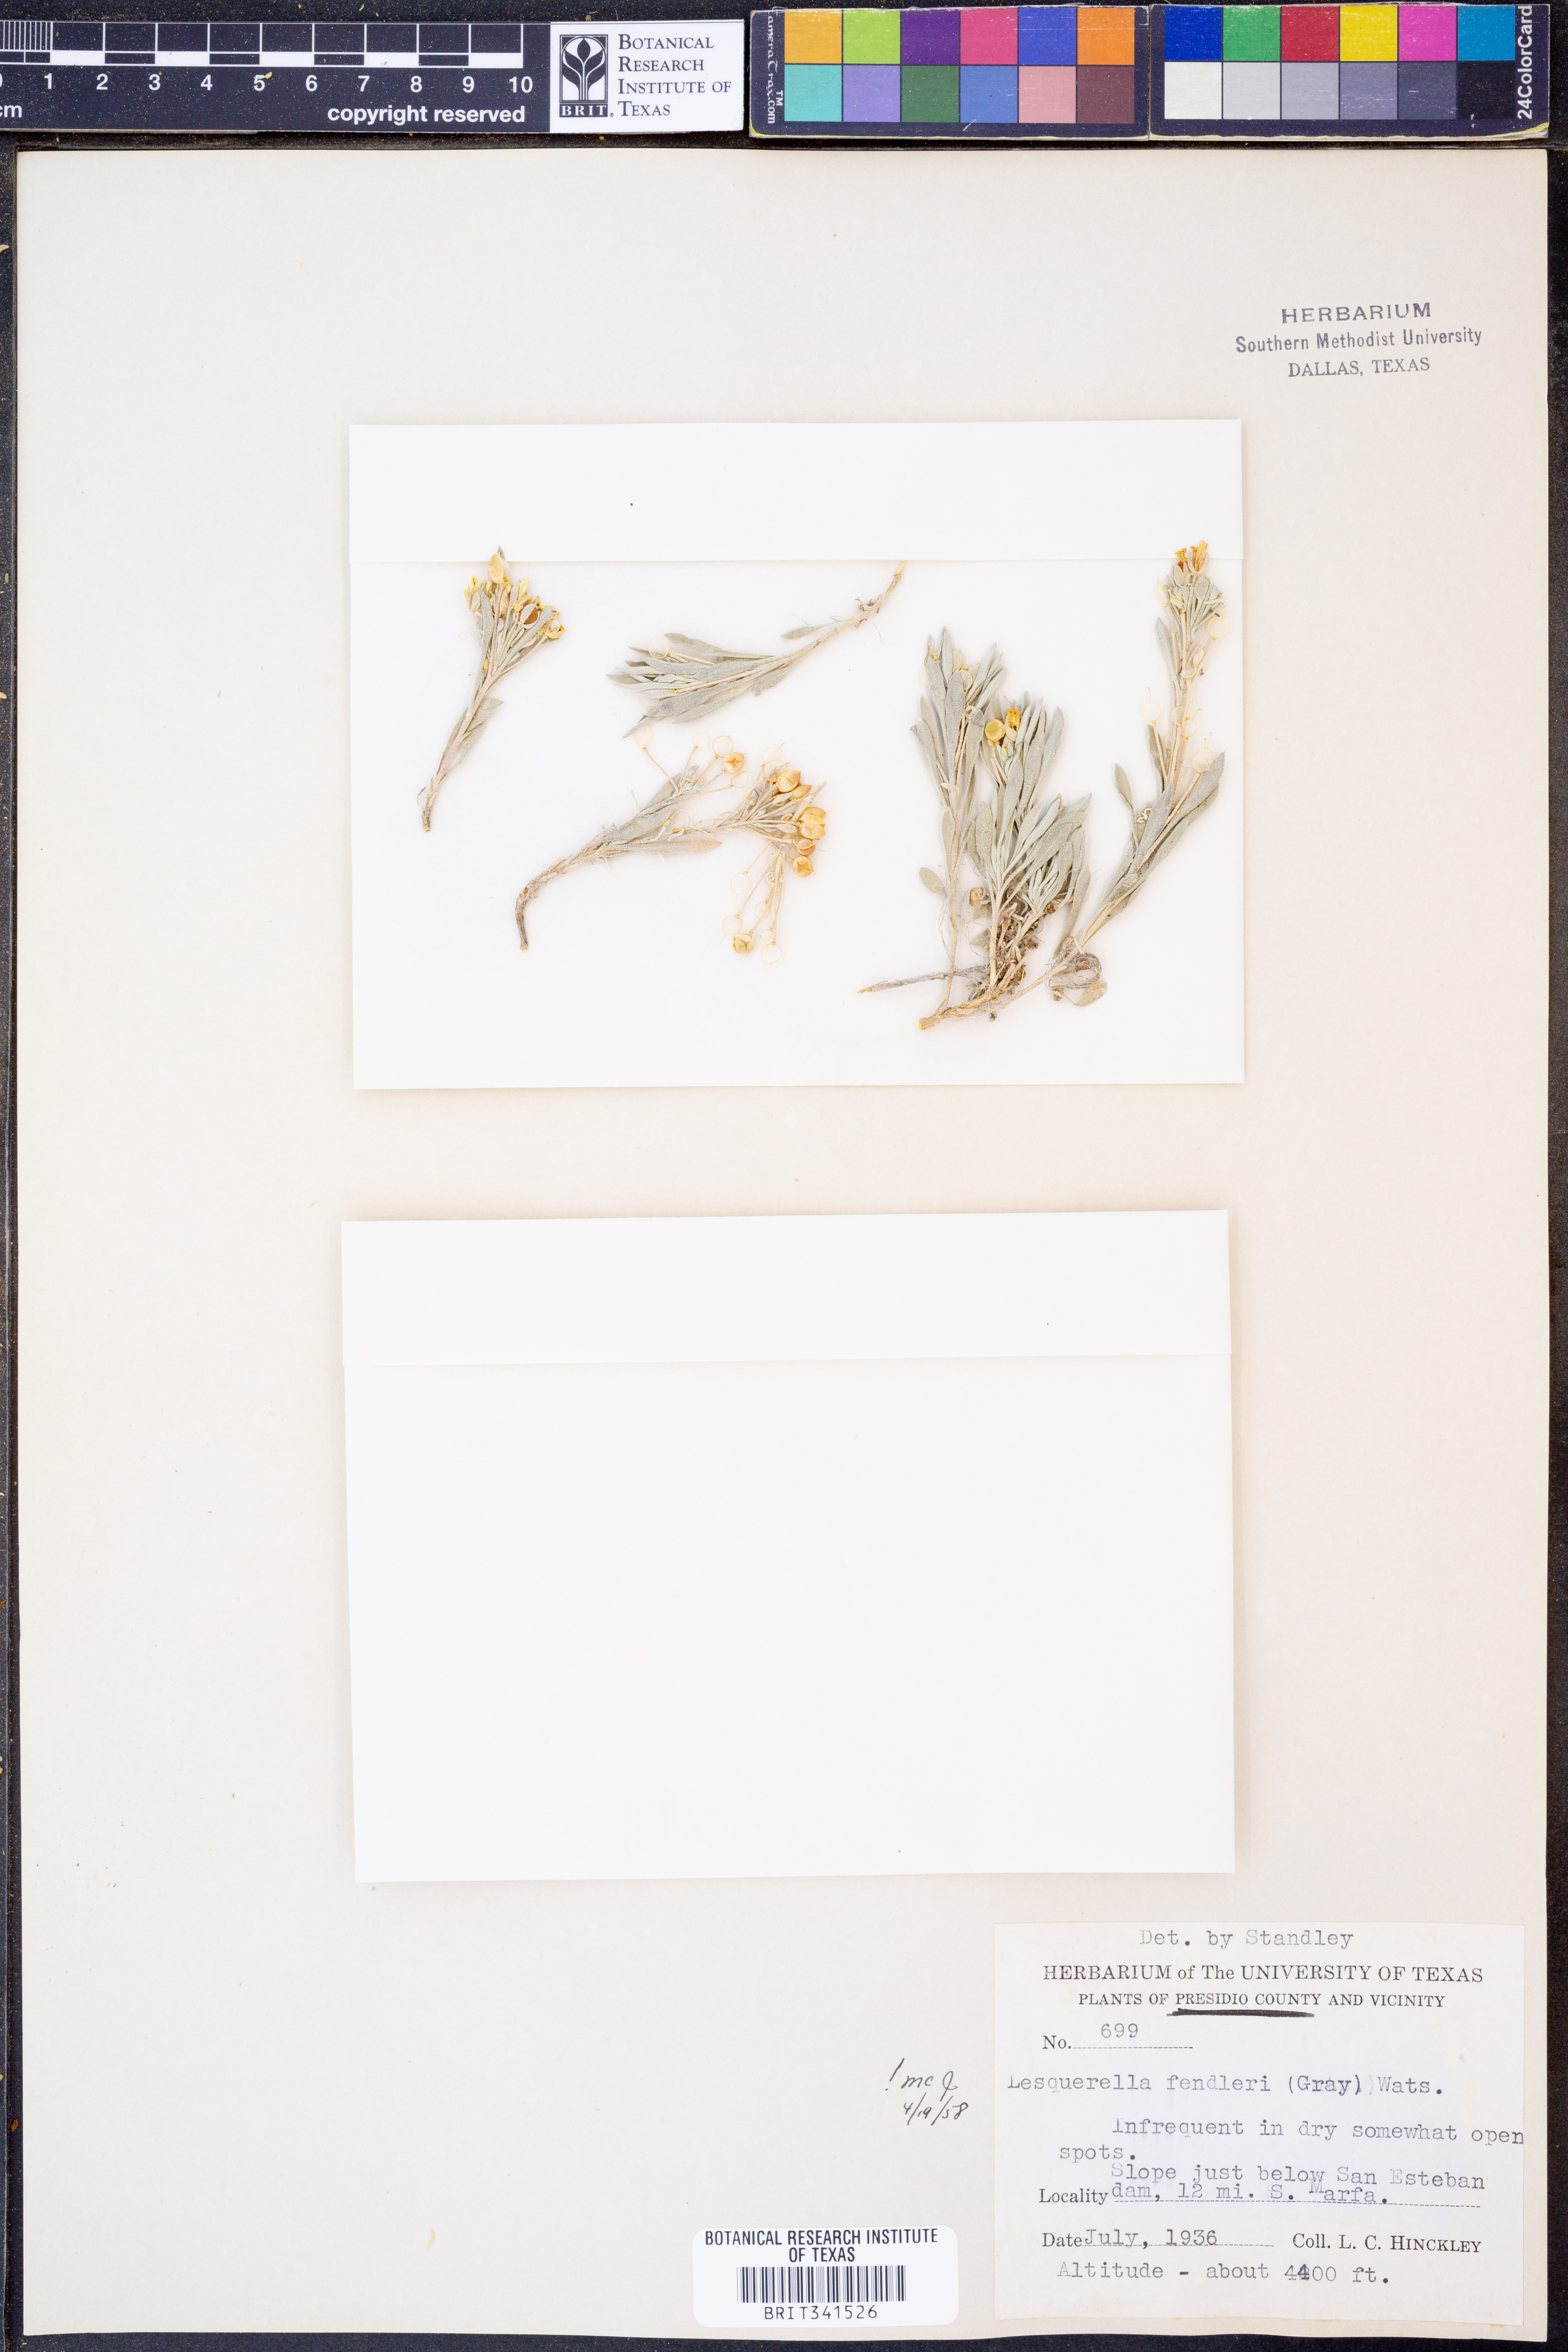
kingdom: Plantae
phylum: Tracheophyta
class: Magnoliopsida
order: Brassicales
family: Brassicaceae
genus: Physaria
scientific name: Physaria fendleri
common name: Fendler's bladderpod
